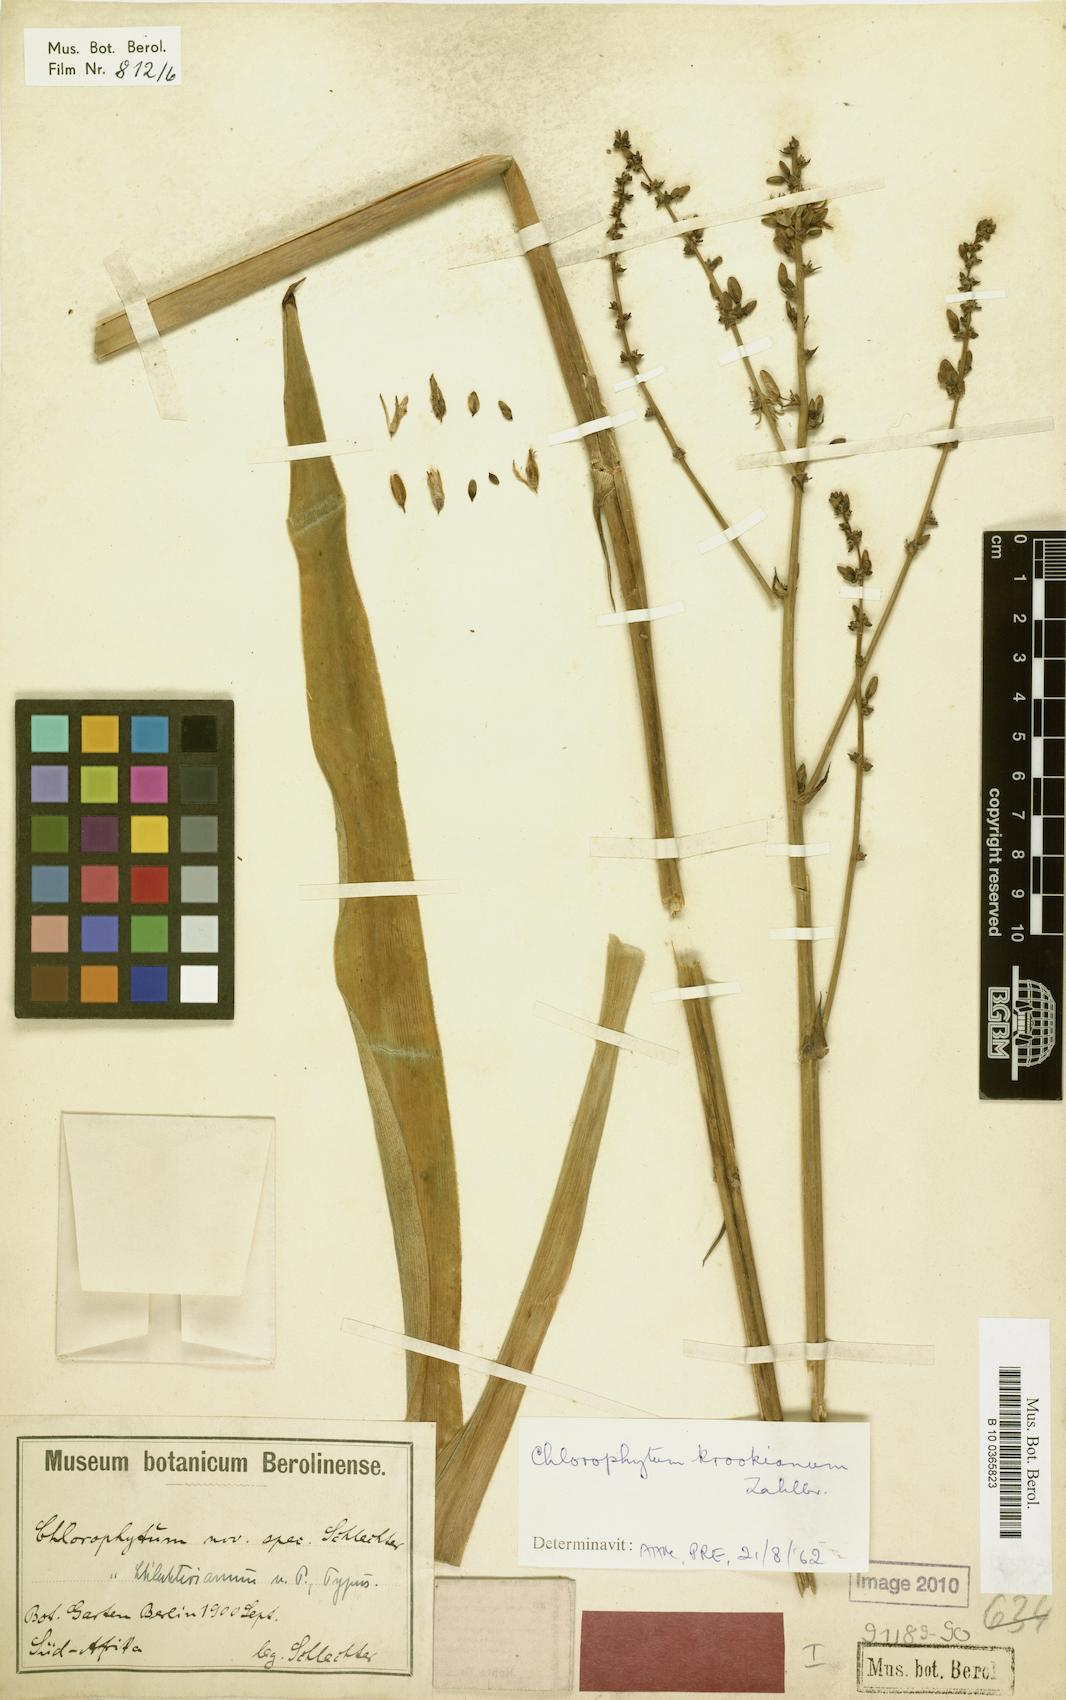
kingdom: Plantae
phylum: Tracheophyta
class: Liliopsida
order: Asparagales
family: Asparagaceae
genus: Chlorophytum
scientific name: Chlorophytum krookianum
